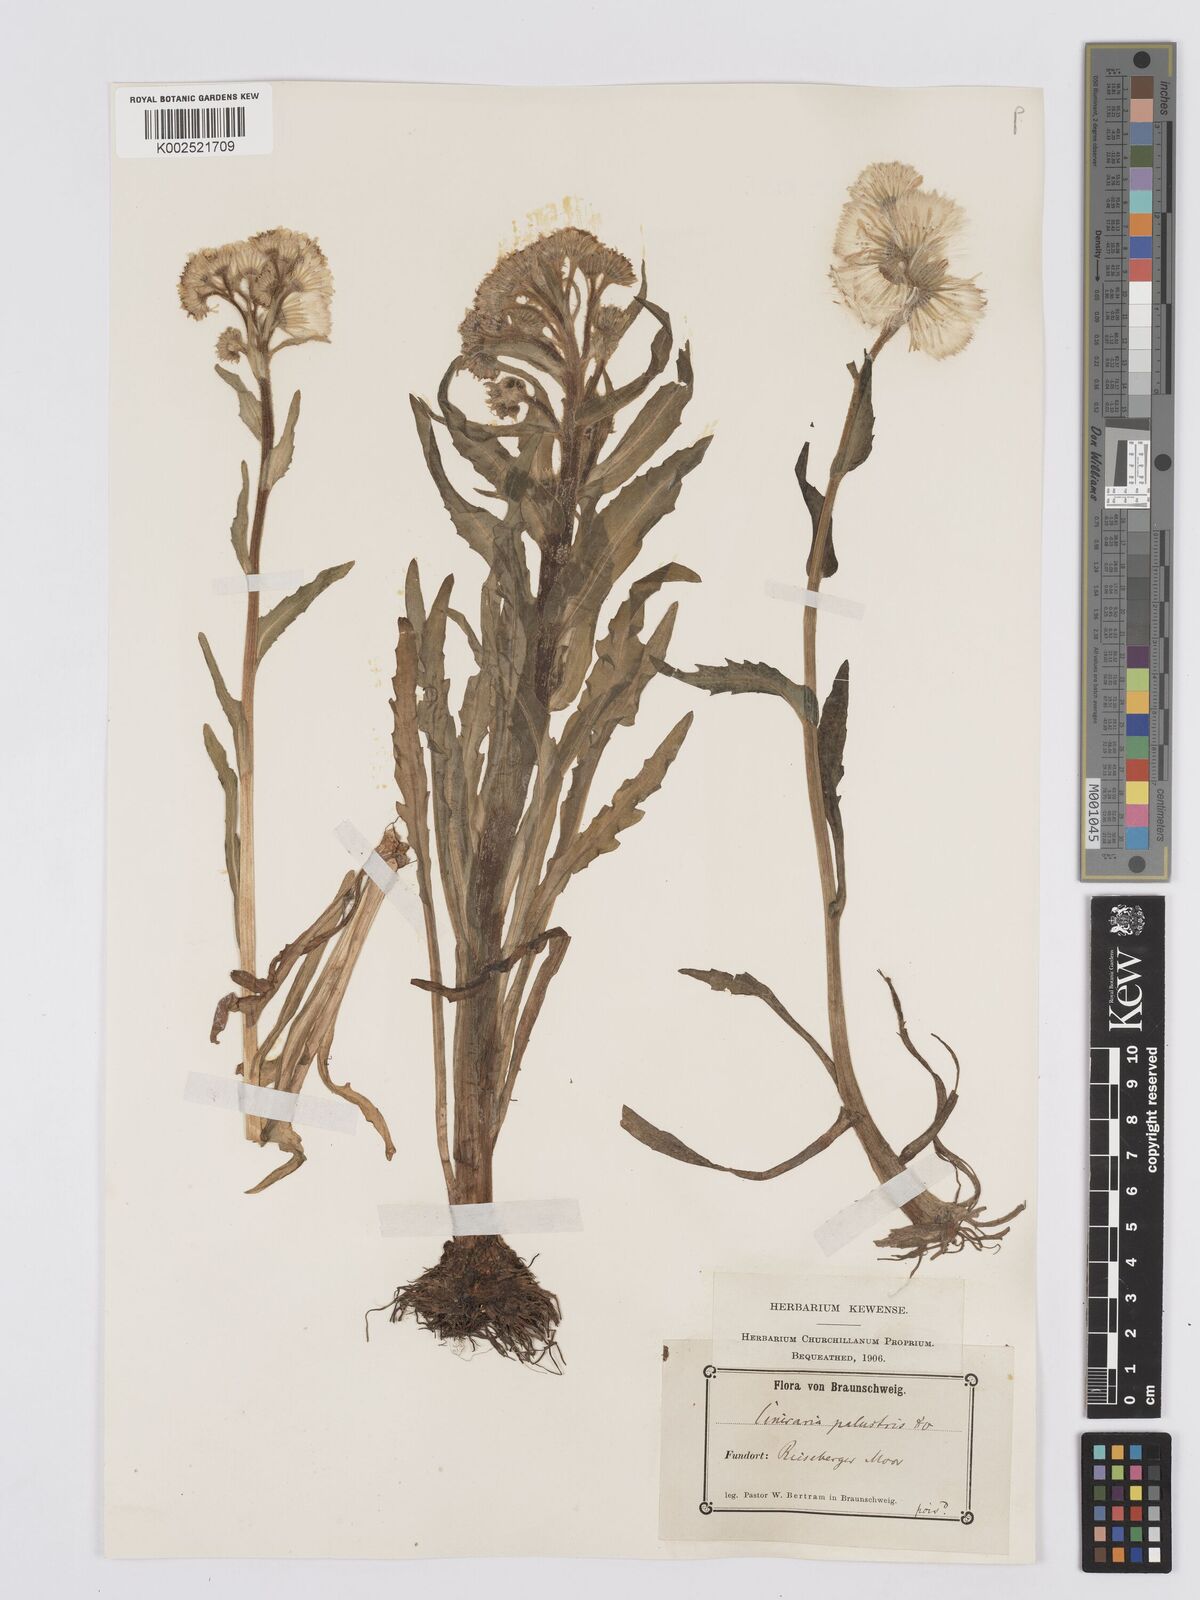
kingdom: Plantae
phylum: Tracheophyta
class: Magnoliopsida
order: Asterales
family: Asteraceae
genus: Tephroseris
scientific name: Tephroseris palustris
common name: Marsh fleawort
